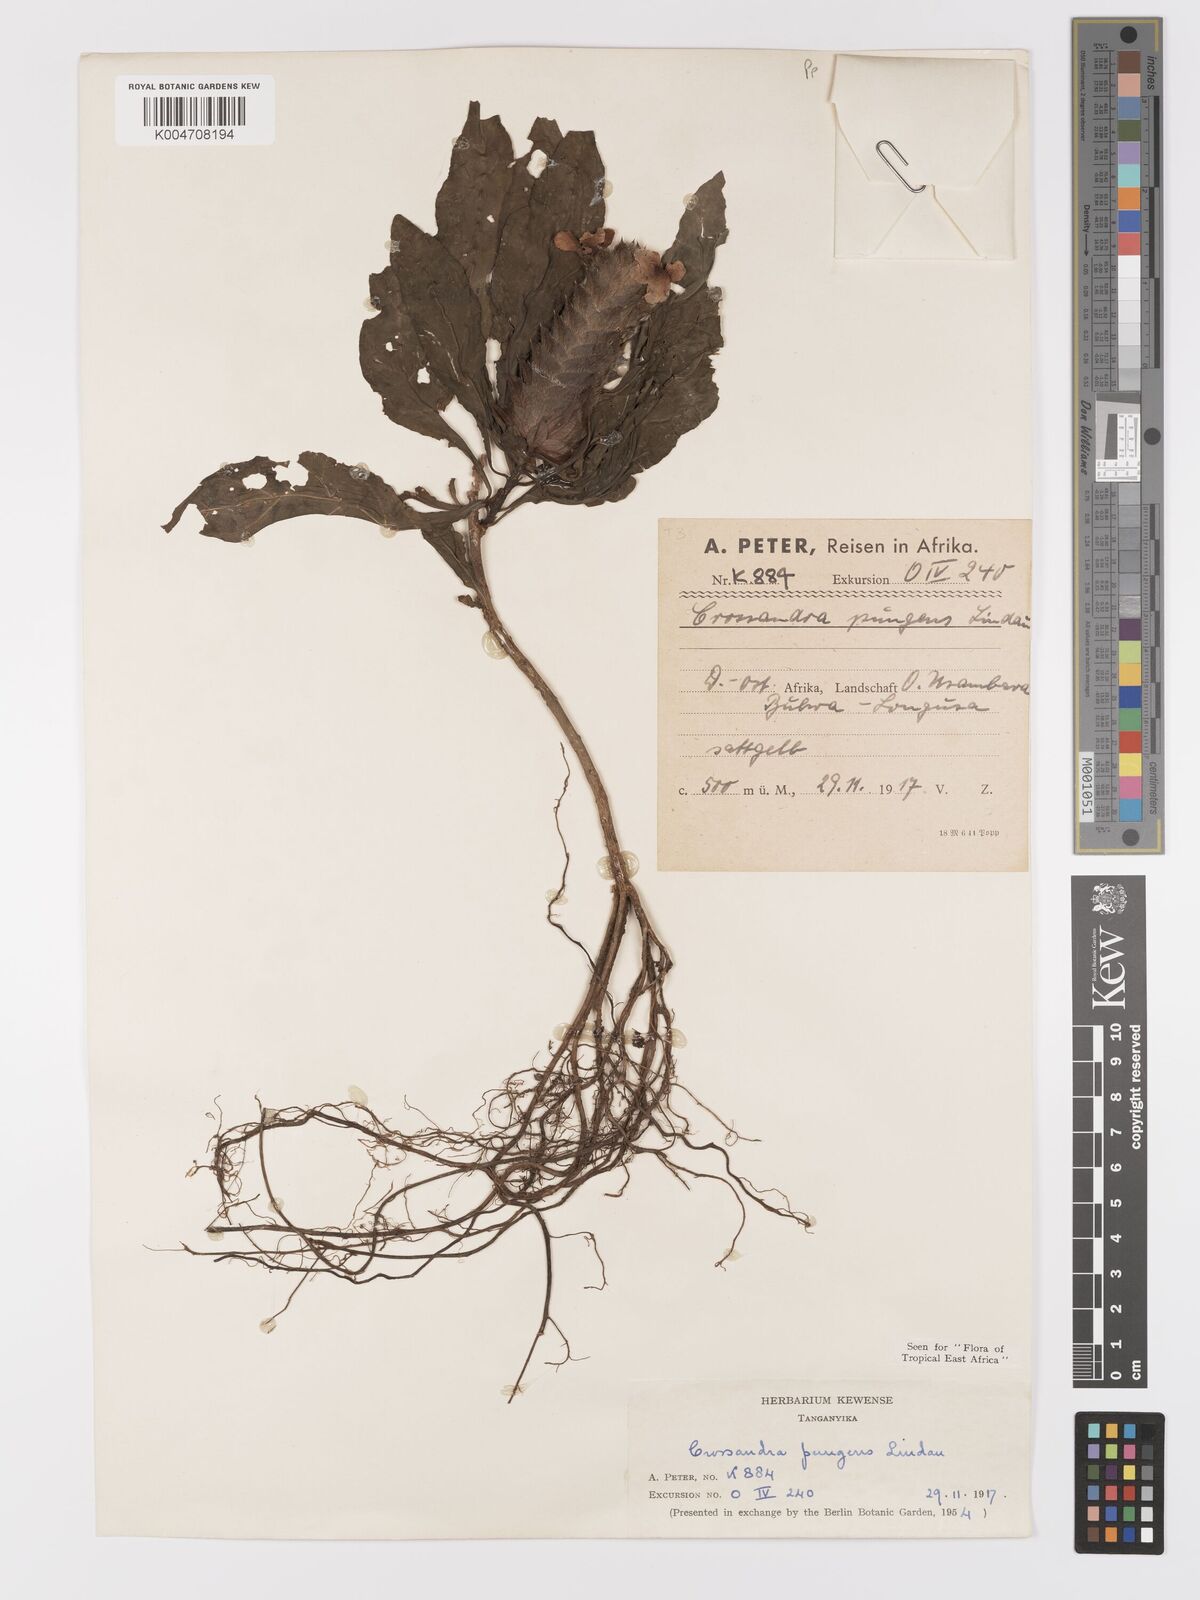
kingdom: Plantae
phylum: Tracheophyta
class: Magnoliopsida
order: Lamiales
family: Acanthaceae
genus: Crossandra
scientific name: Crossandra pungens
